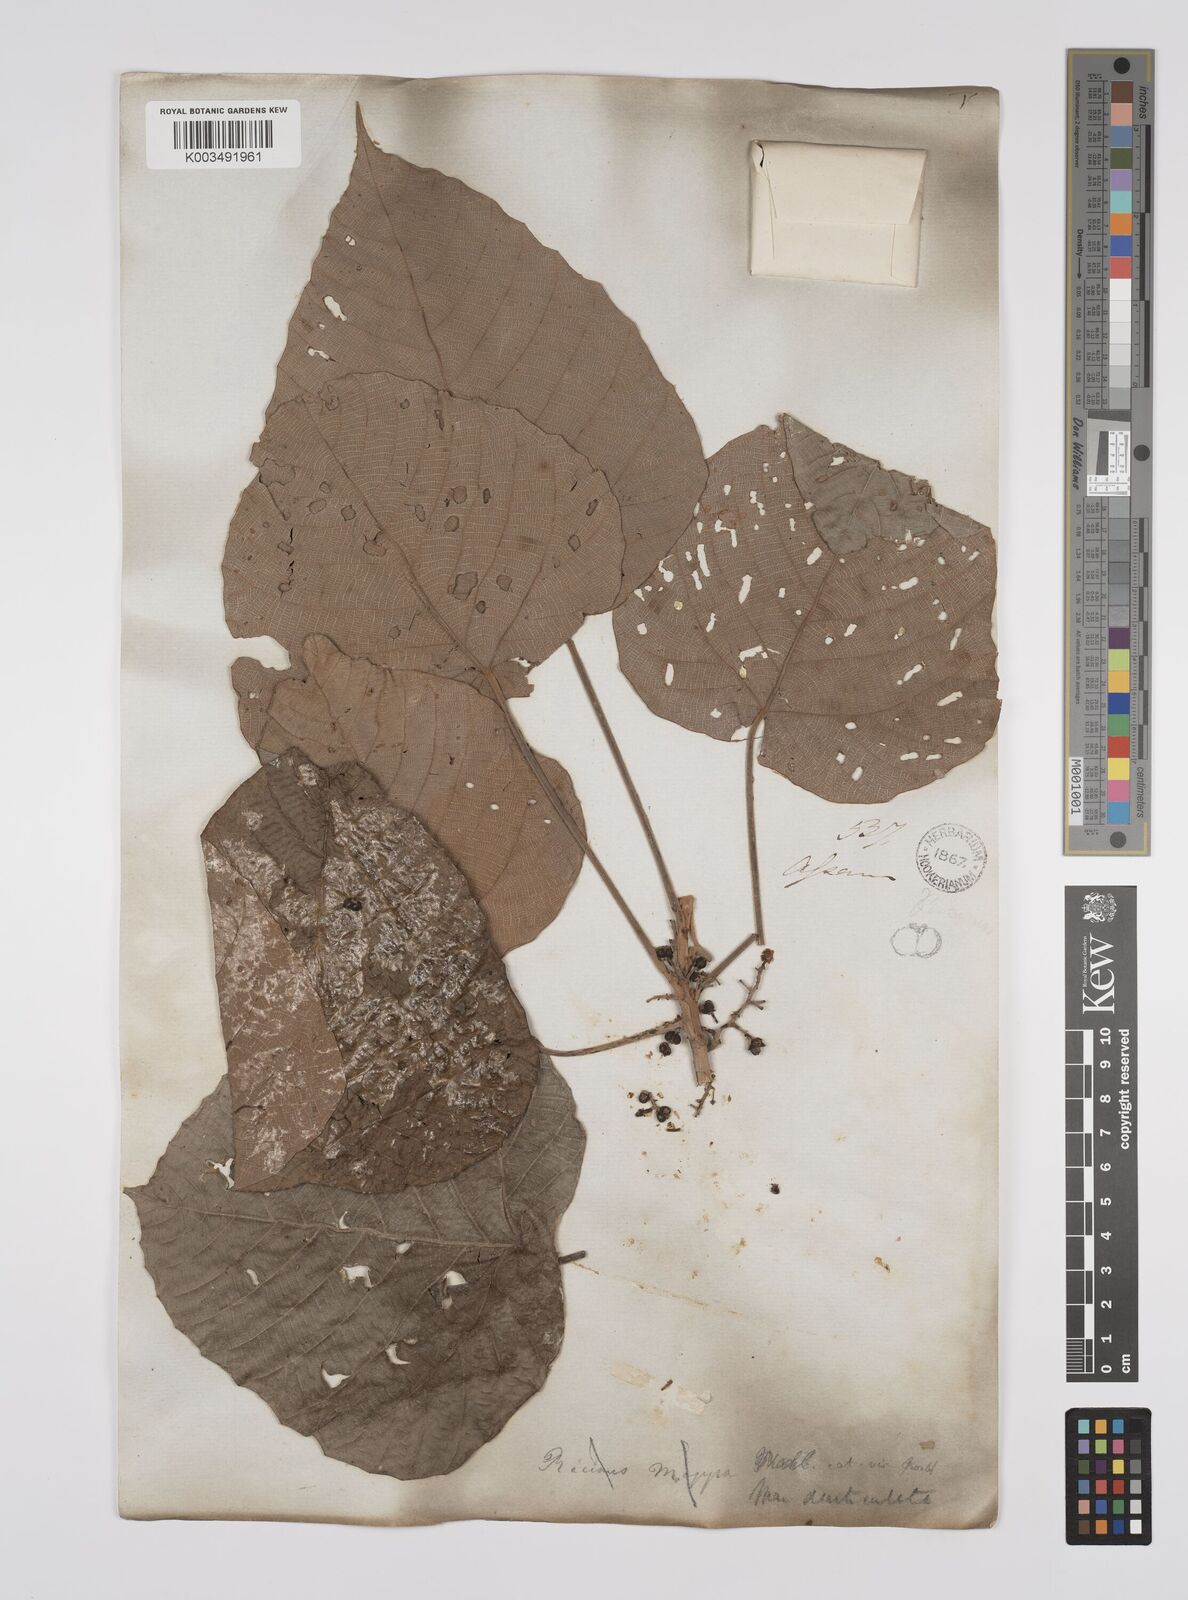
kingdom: Plantae
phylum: Tracheophyta
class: Magnoliopsida
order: Malpighiales
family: Euphorbiaceae
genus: Macaranga
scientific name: Macaranga
